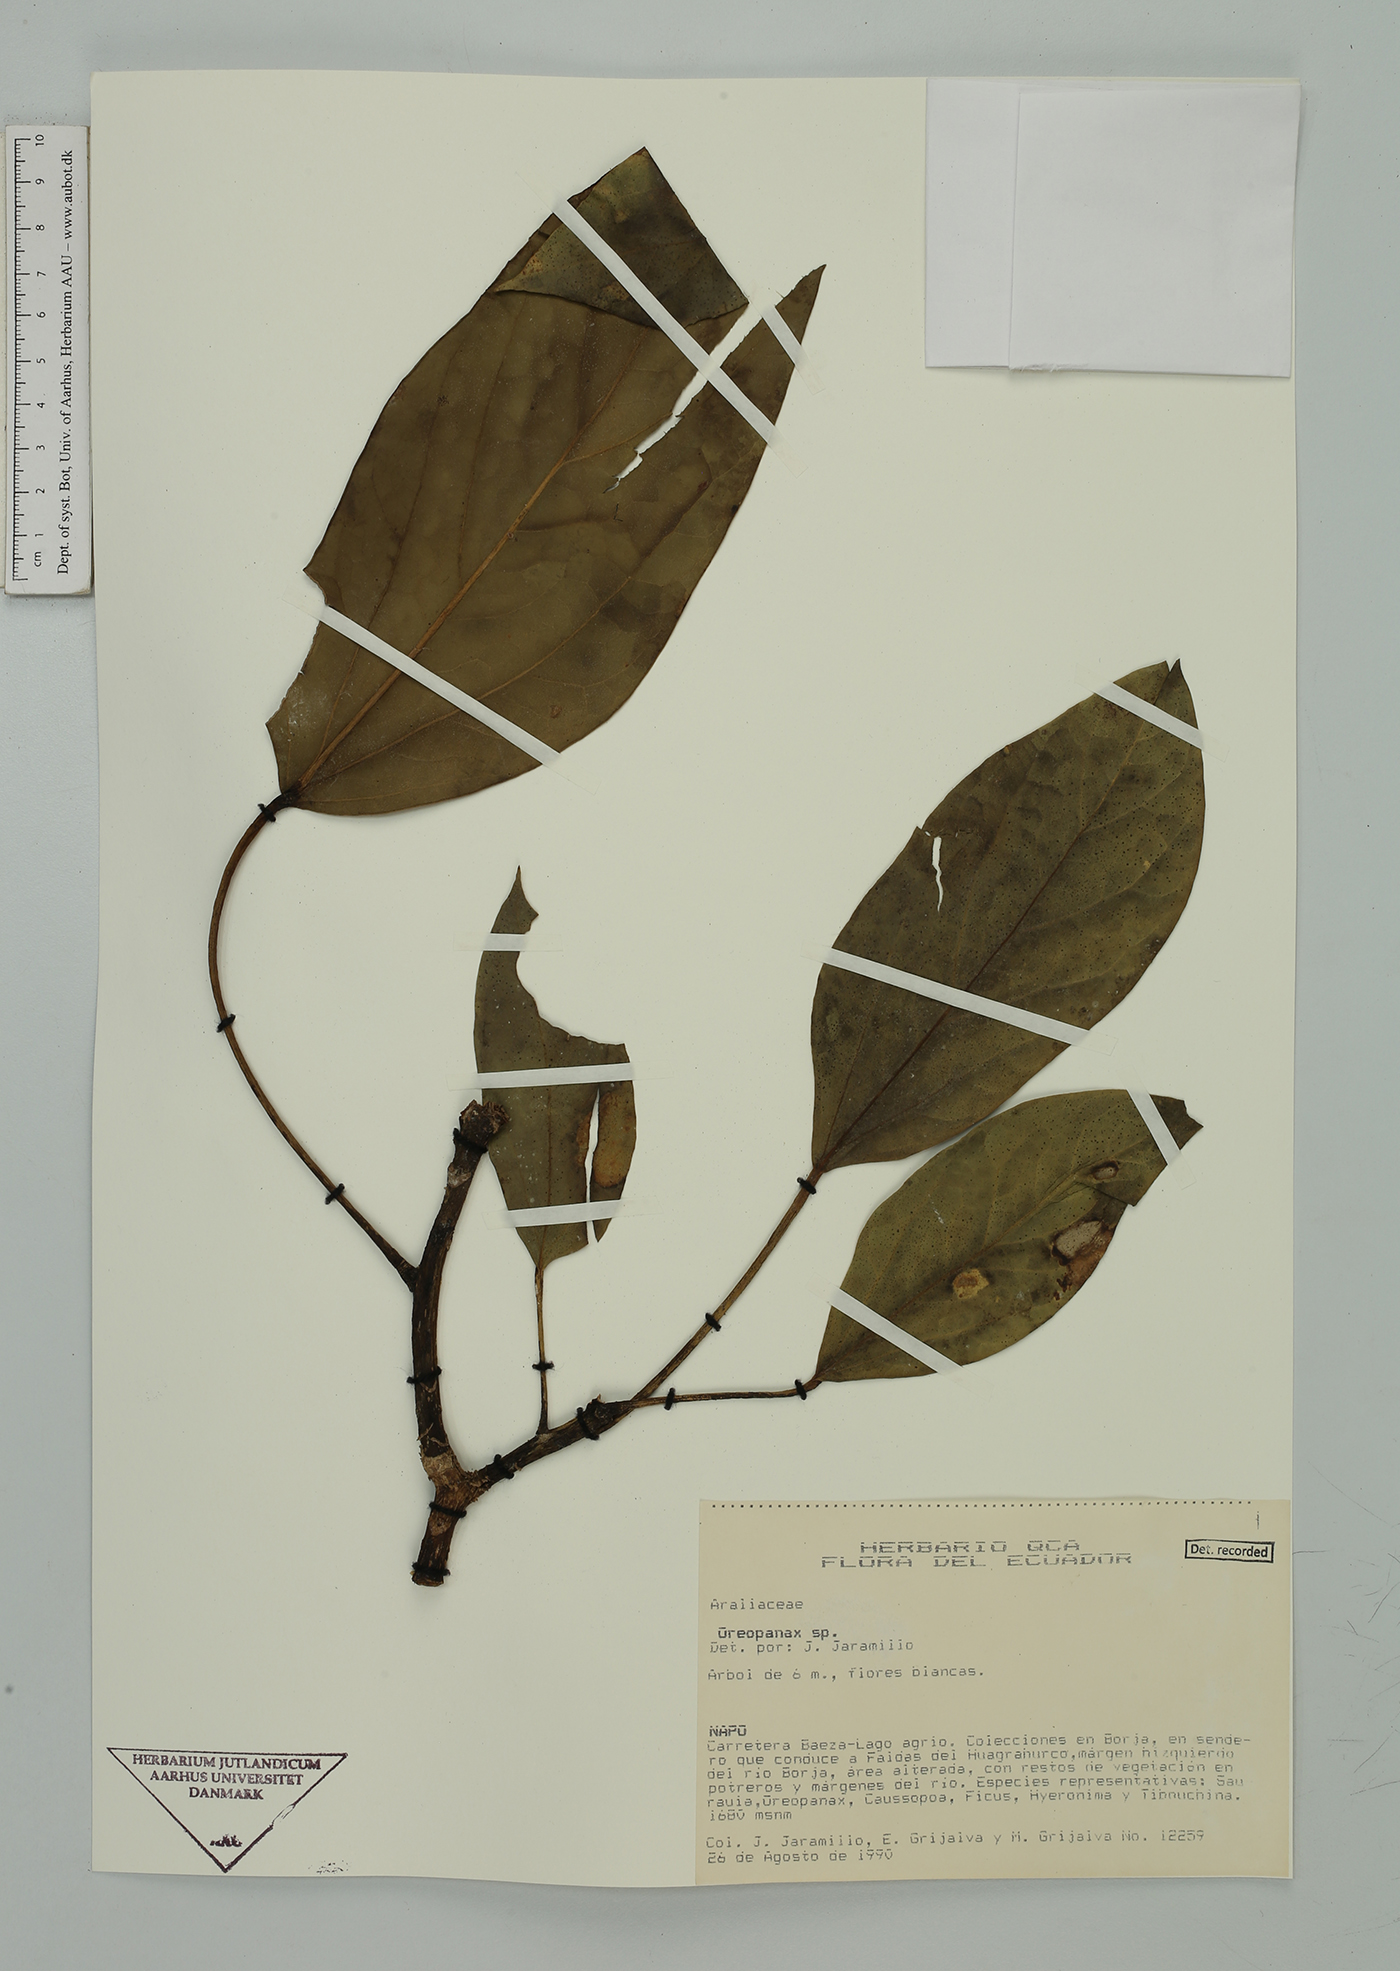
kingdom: Plantae
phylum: Tracheophyta
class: Magnoliopsida
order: Apiales
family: Araliaceae
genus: Oreopanax
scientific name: Oreopanax
